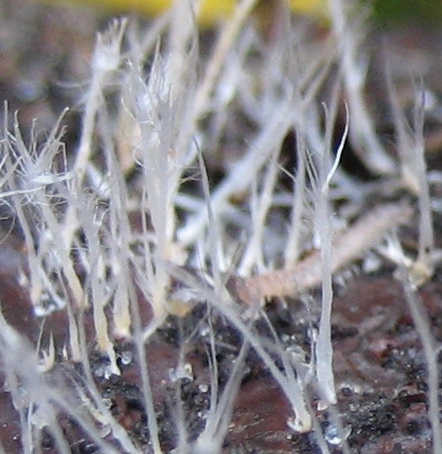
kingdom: Fungi
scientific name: Fungi
